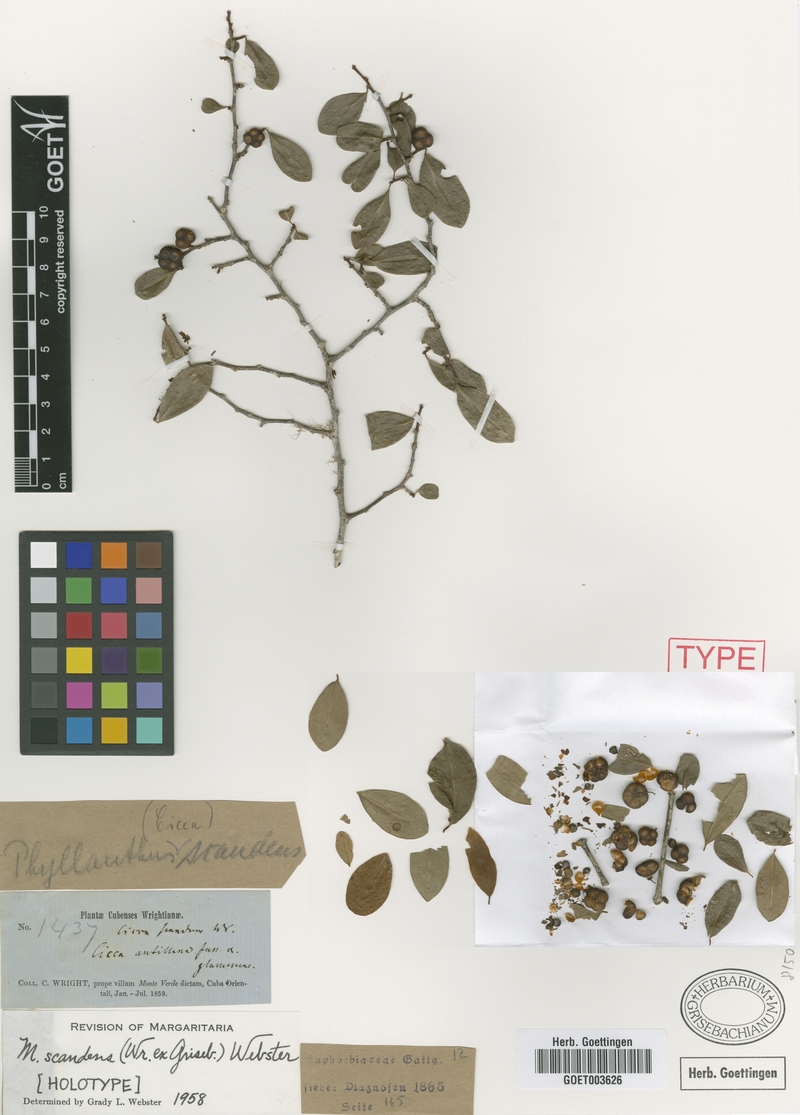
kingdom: Plantae
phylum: Tracheophyta
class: Magnoliopsida
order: Malpighiales
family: Phyllanthaceae
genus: Margaritaria
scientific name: Margaritaria scandens
